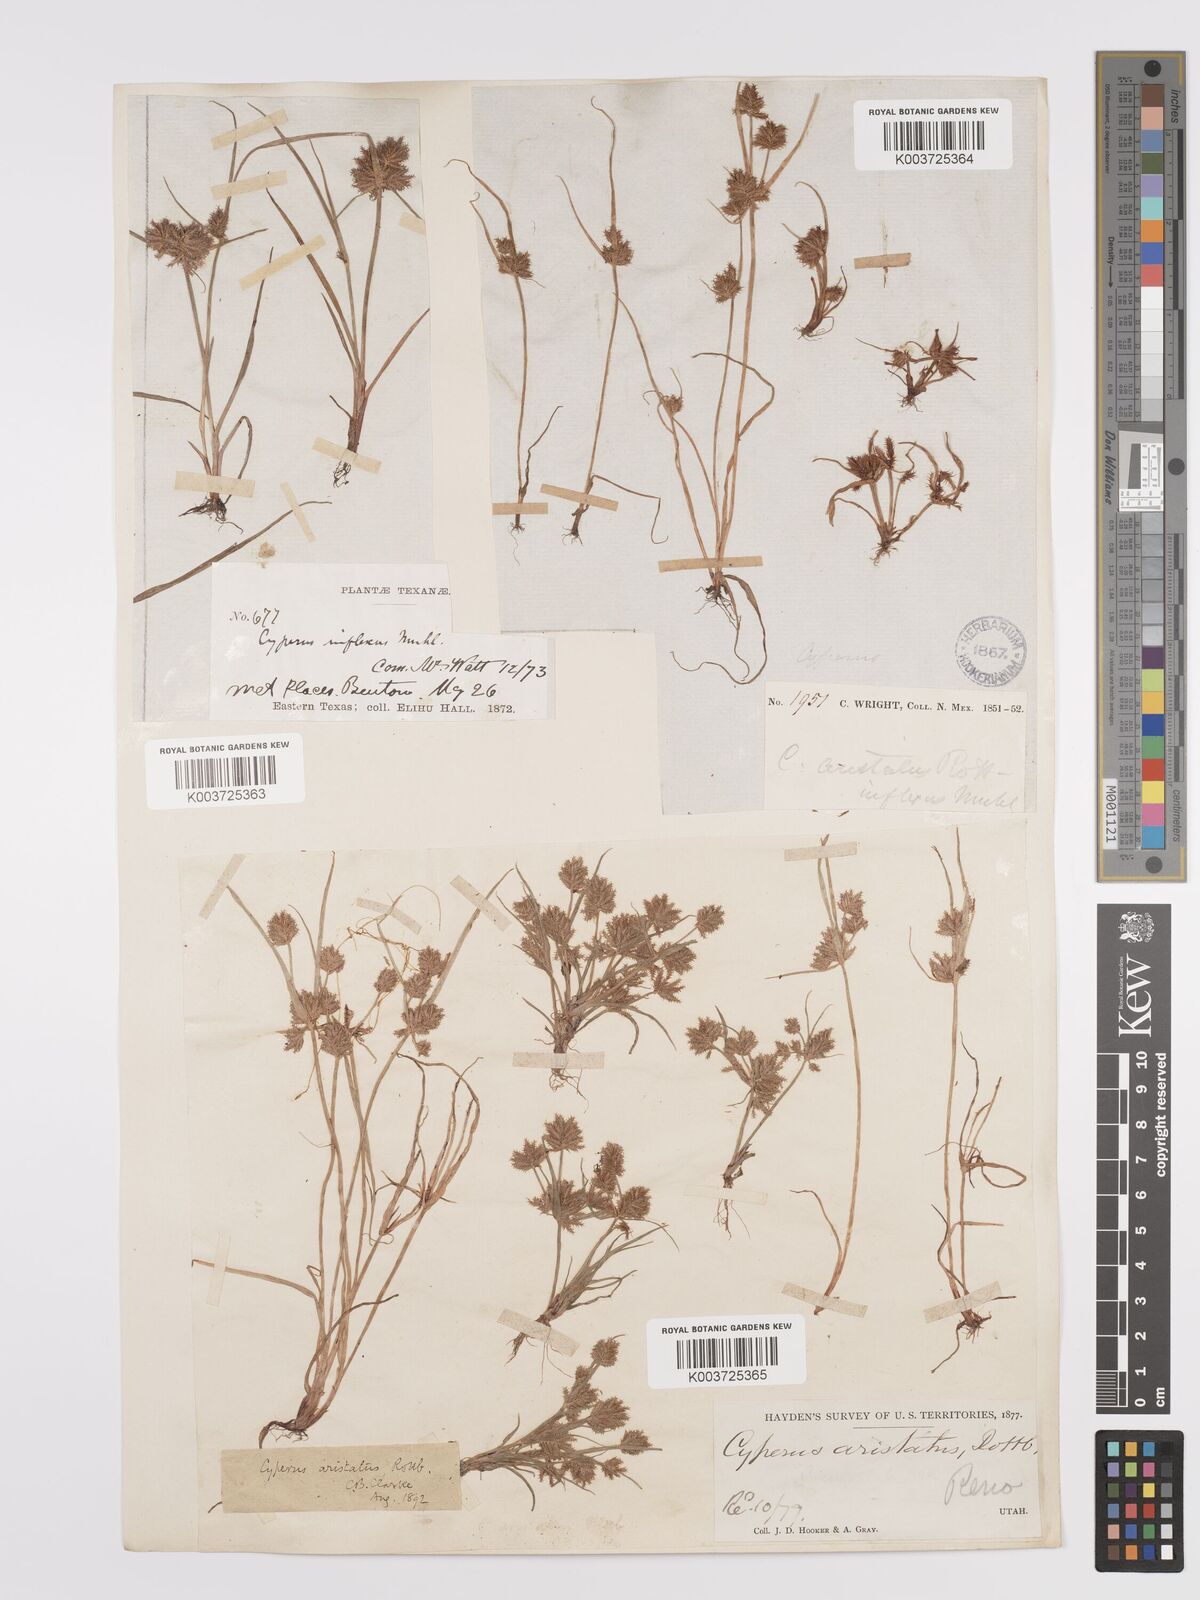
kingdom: Plantae
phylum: Tracheophyta
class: Liliopsida
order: Poales
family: Cyperaceae
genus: Cyperus
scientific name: Cyperus squarrosus
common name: Awned cyperus
